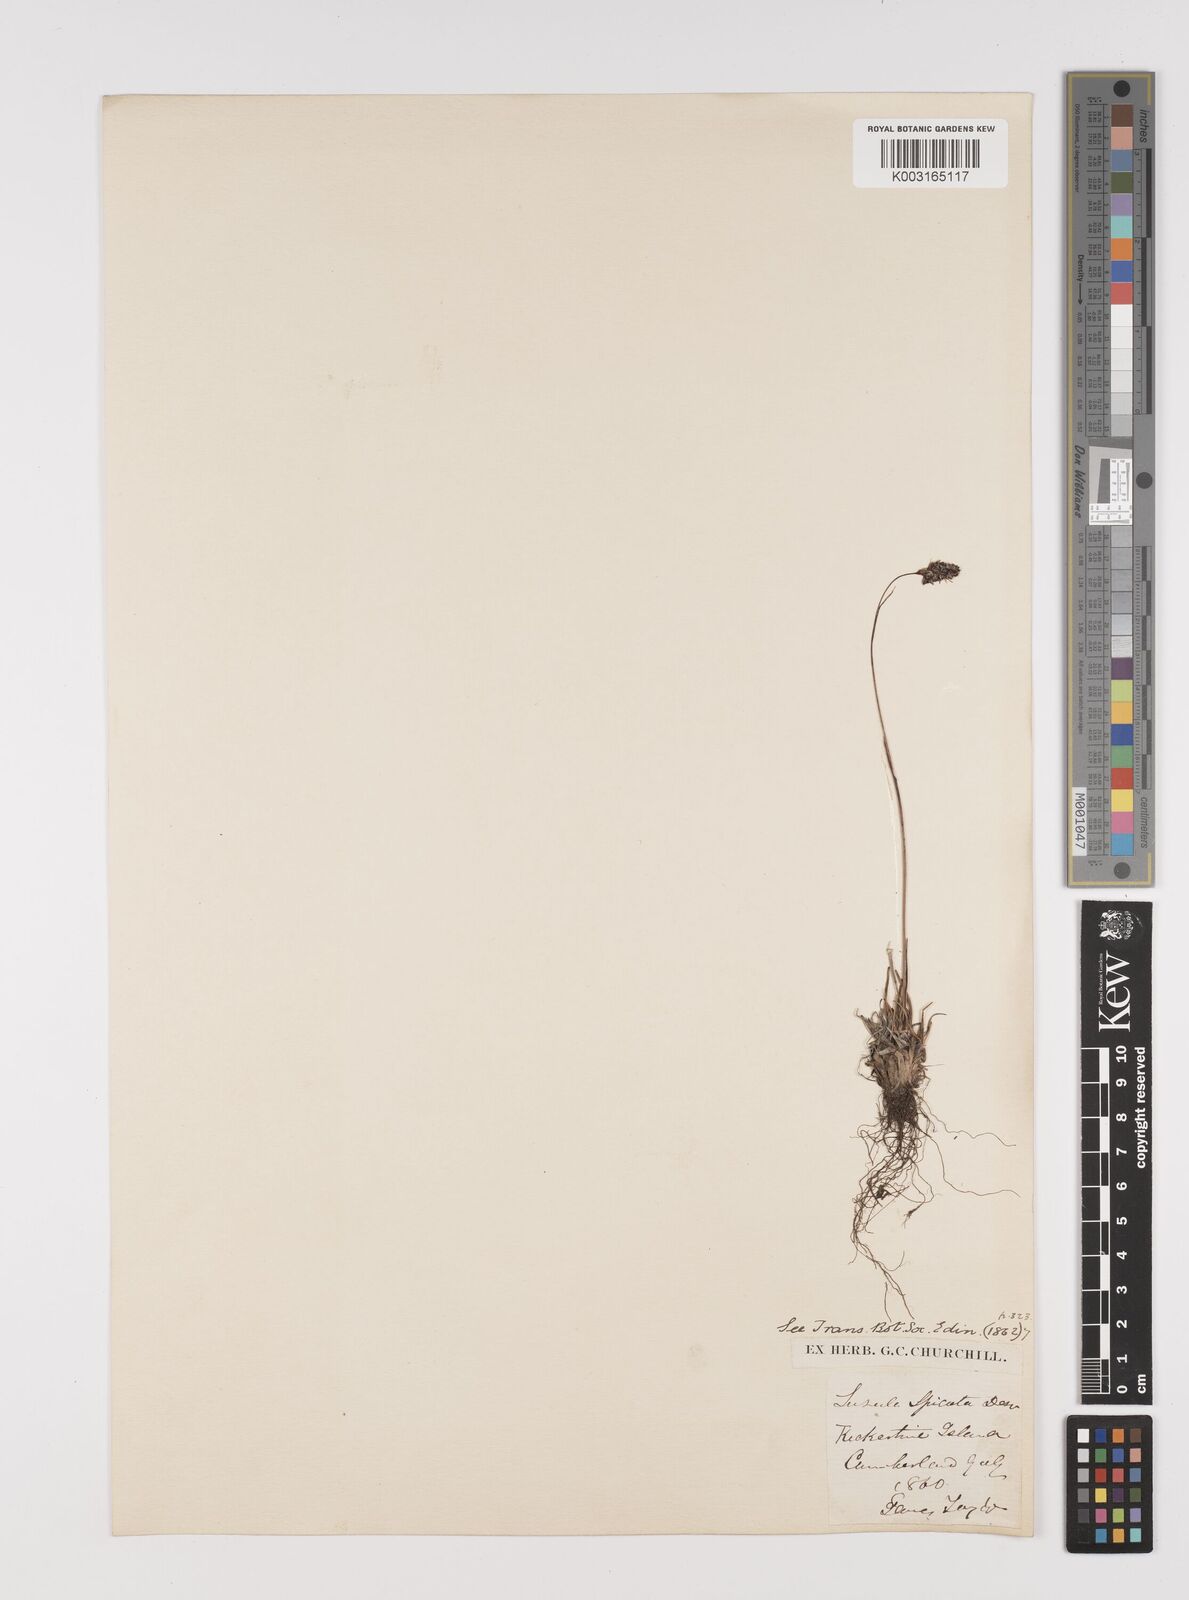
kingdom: Plantae
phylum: Tracheophyta
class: Liliopsida
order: Poales
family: Juncaceae
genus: Luzula
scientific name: Luzula spicata
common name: Spiked wood-rush
